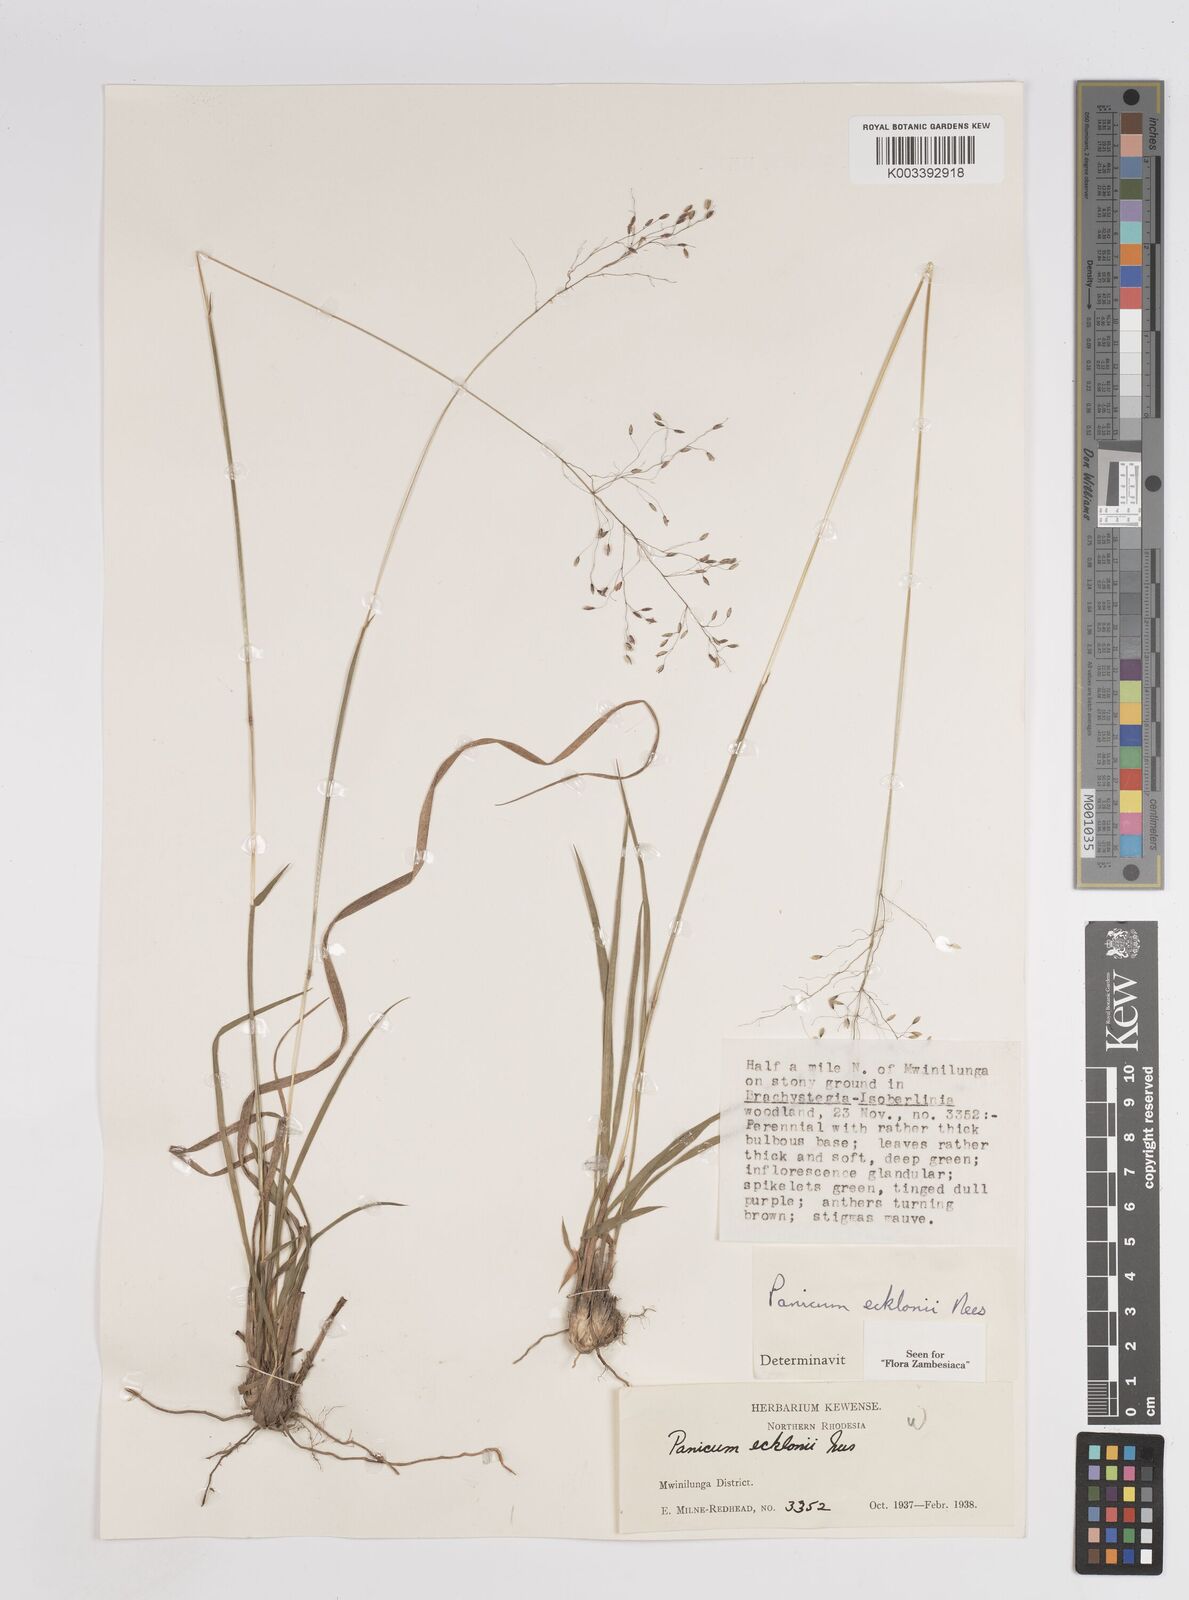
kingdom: Plantae
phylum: Tracheophyta
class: Liliopsida
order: Poales
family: Poaceae
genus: Adenochloa
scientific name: Adenochloa ecklonii
